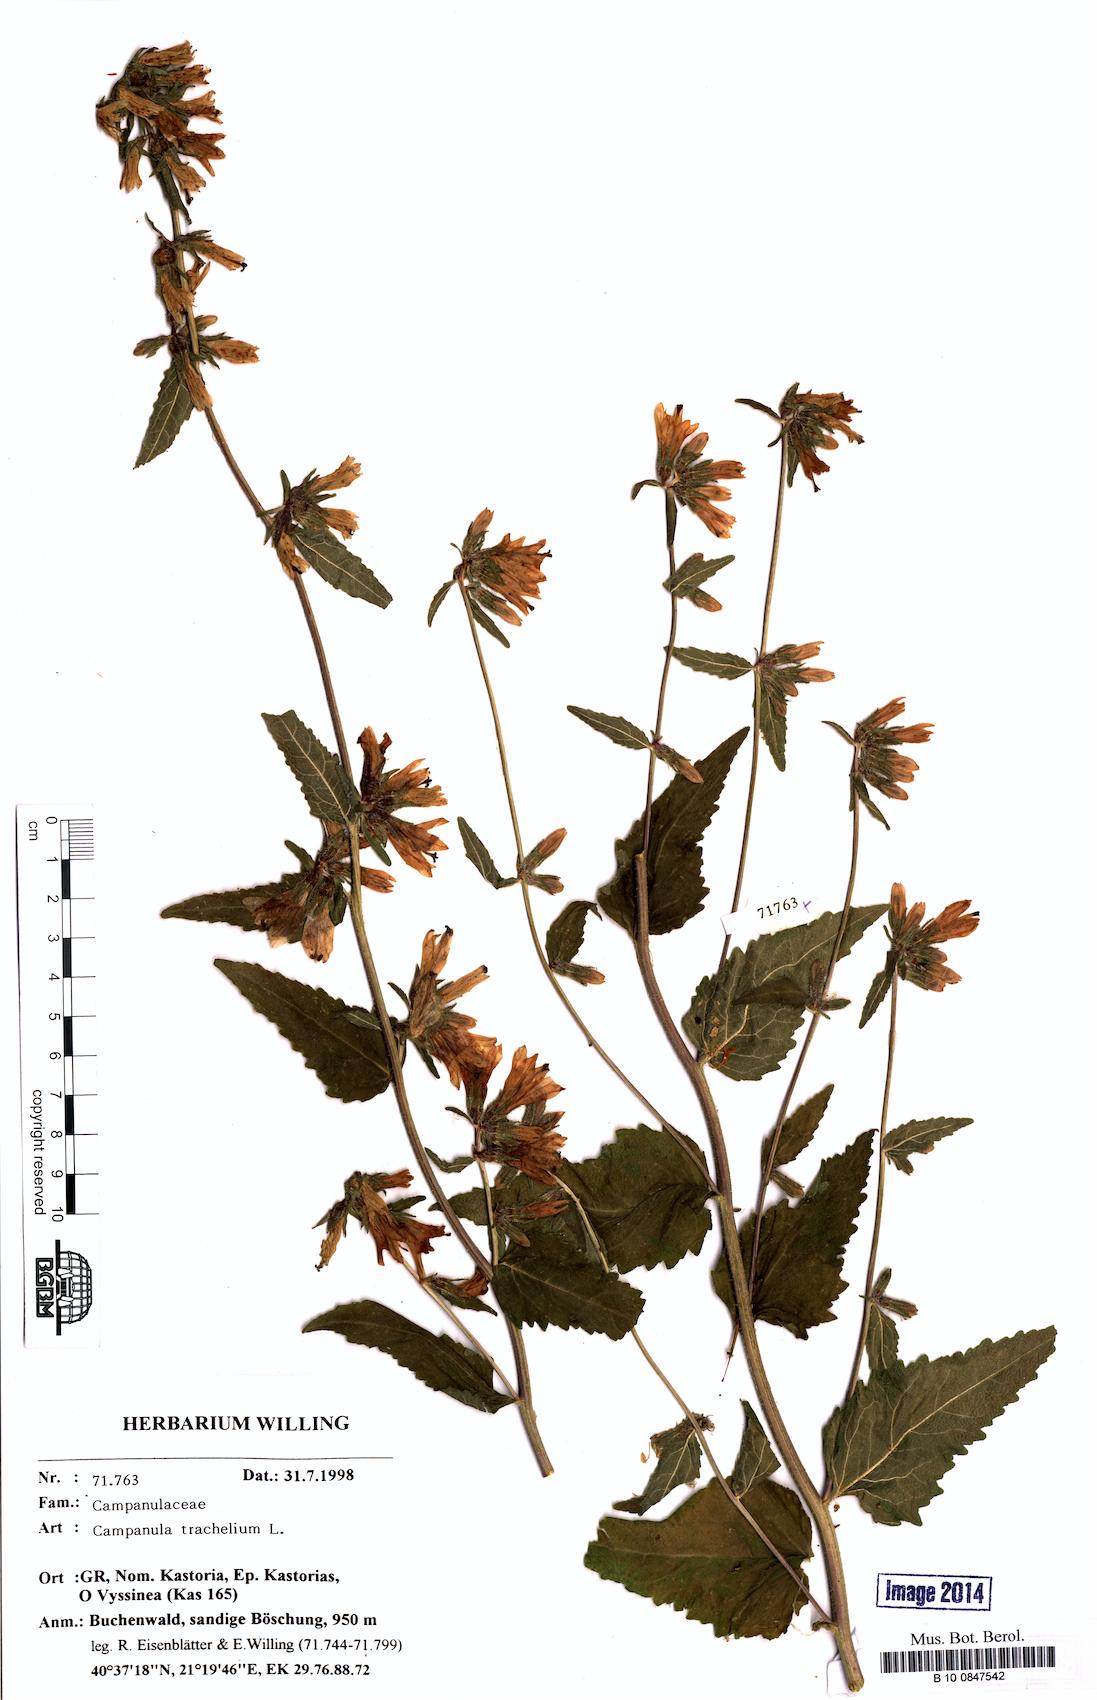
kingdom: Plantae
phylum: Tracheophyta
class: Magnoliopsida
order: Asterales
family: Campanulaceae
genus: Campanula
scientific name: Campanula trachelium
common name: Nettle-leaved bellflower
